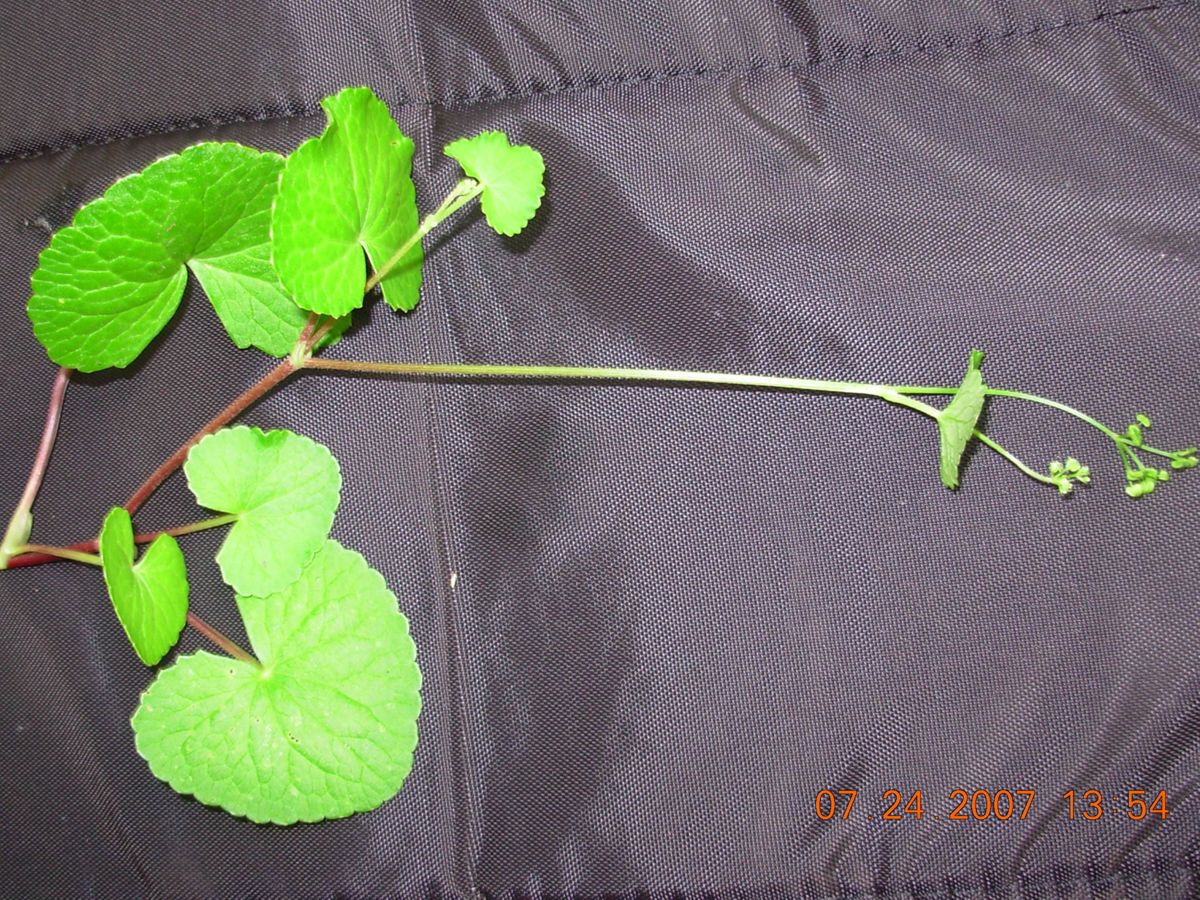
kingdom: Plantae
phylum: Tracheophyta
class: Magnoliopsida
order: Apiales
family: Apiaceae
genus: Centella
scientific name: Centella asiatica
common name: Spadeleaf
